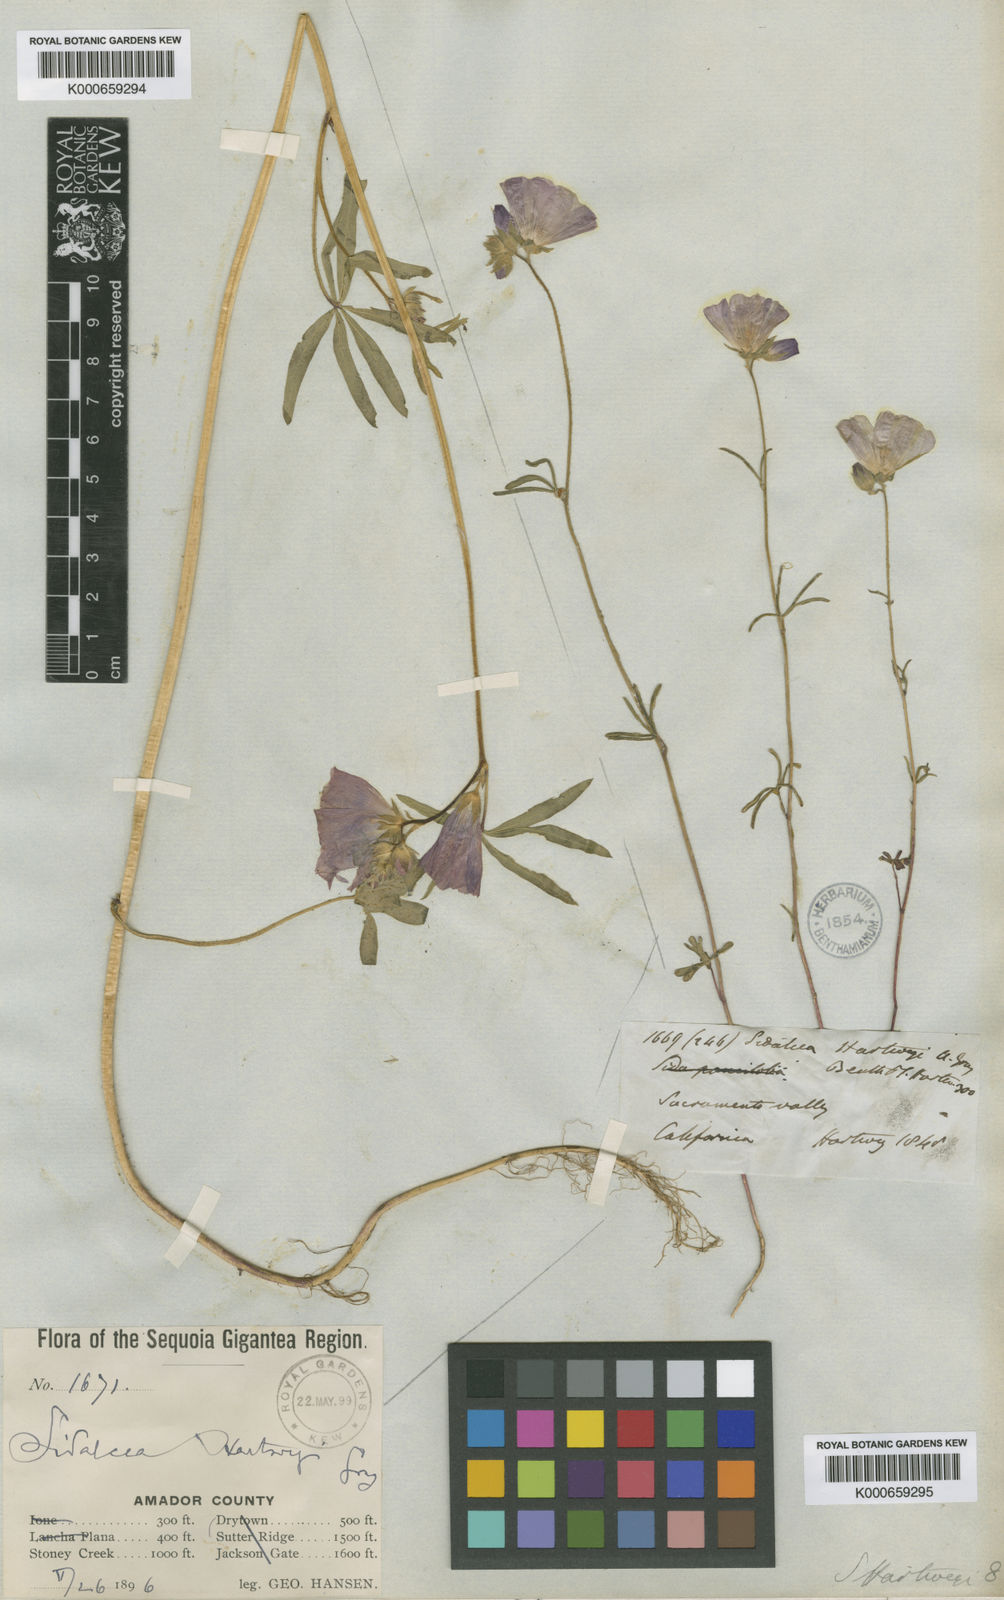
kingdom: Plantae
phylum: Tracheophyta
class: Magnoliopsida
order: Malvales
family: Malvaceae
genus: Sidalcea
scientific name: Sidalcea hartwegii
